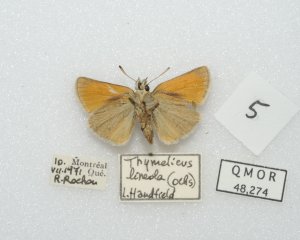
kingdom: Animalia
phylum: Arthropoda
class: Insecta
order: Lepidoptera
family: Hesperiidae
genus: Thymelicus
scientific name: Thymelicus lineola
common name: European Skipper
